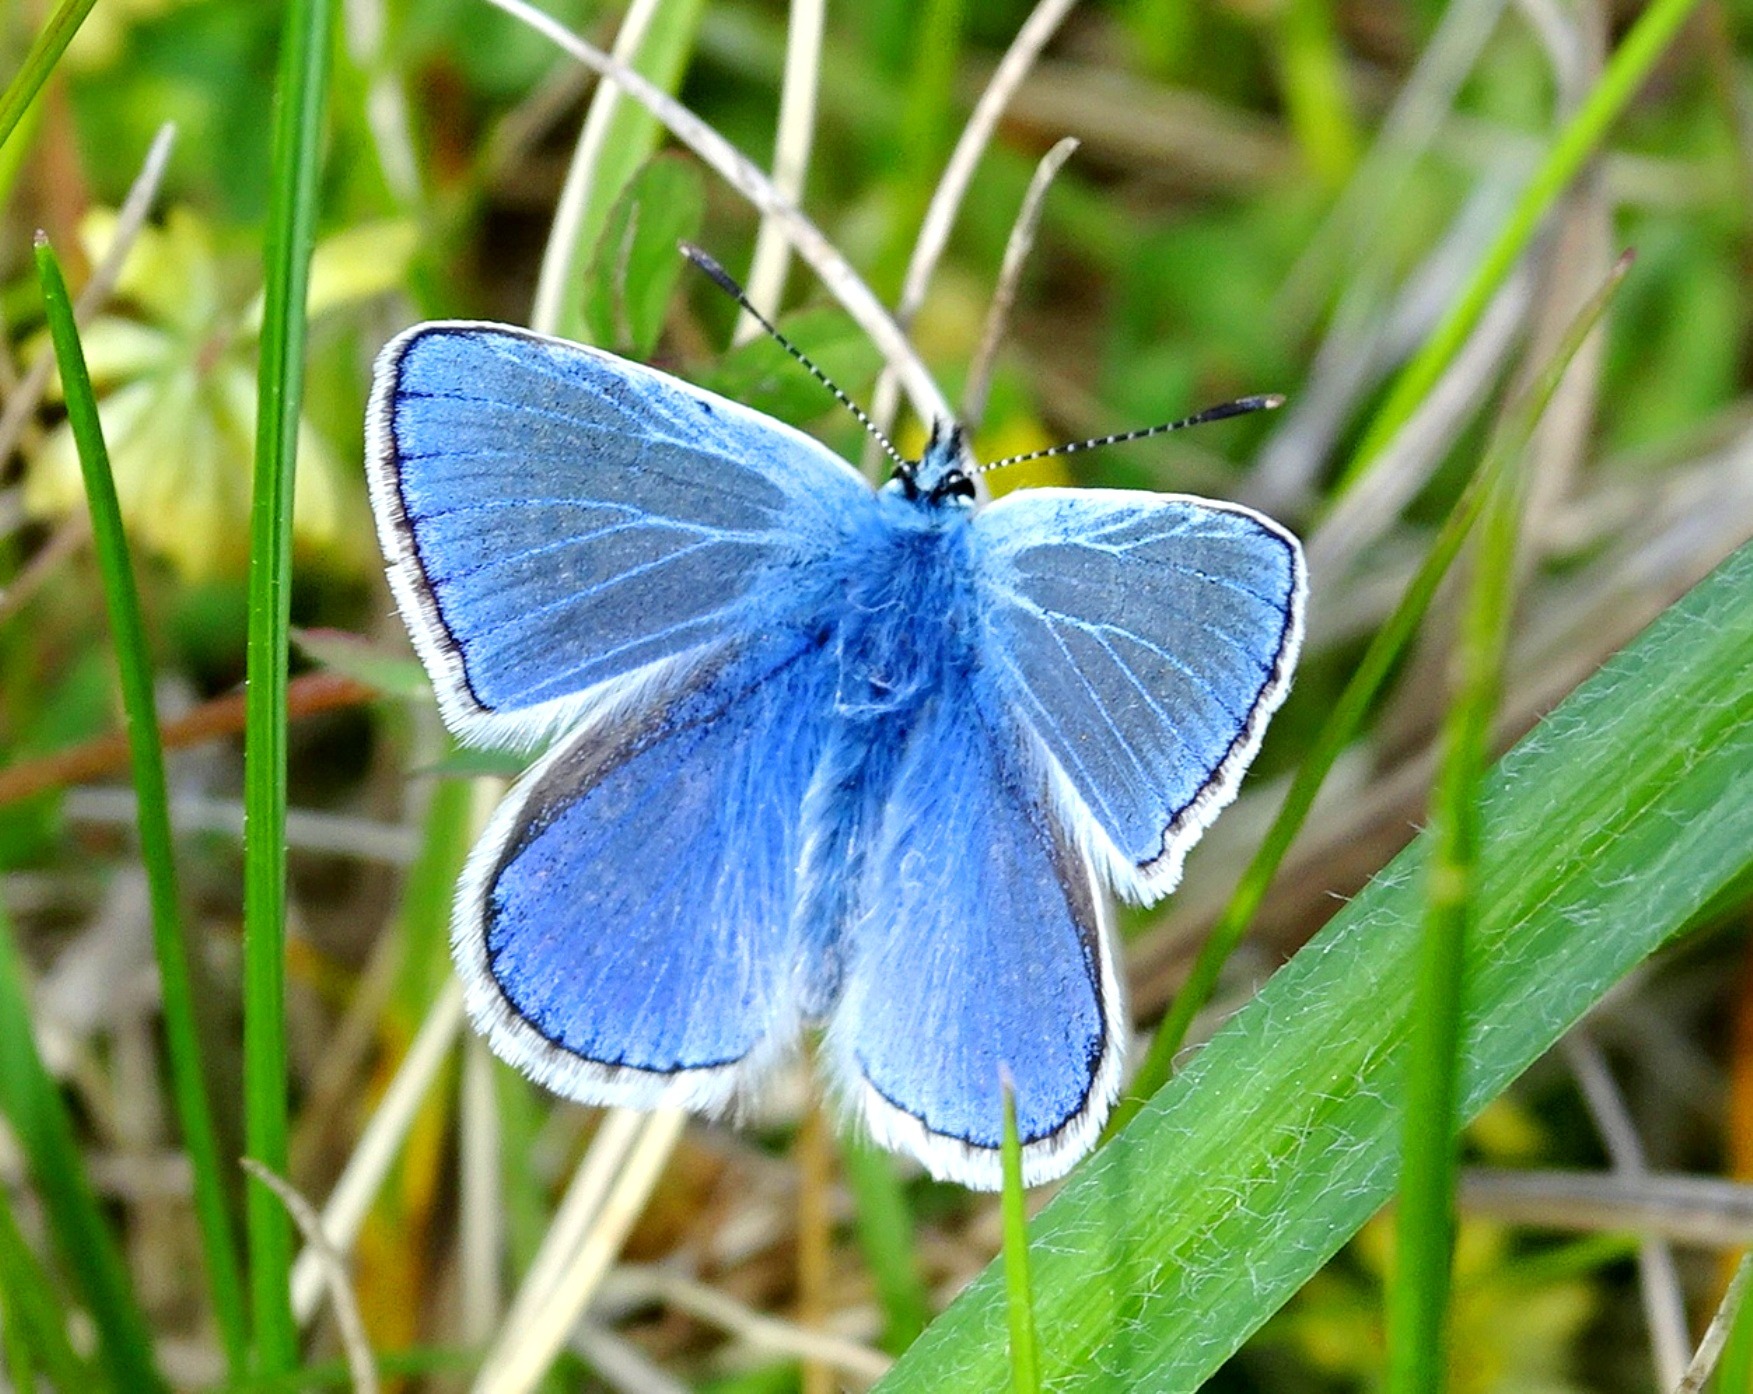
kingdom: Animalia
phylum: Arthropoda
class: Insecta
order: Lepidoptera
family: Lycaenidae
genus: Polyommatus
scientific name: Polyommatus icarus
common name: Almindelig blåfugl
